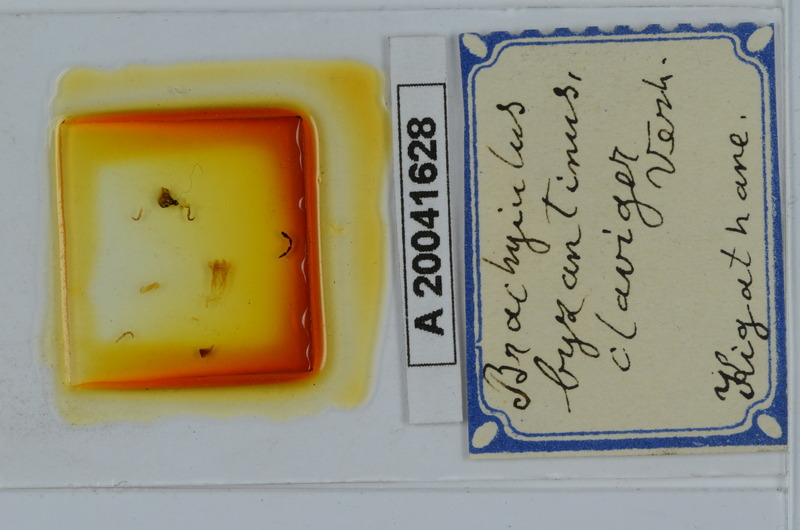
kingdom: Animalia
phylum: Arthropoda
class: Diplopoda
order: Julida
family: Julidae
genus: Brachyiulus
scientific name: Brachyiulus byzantinus
